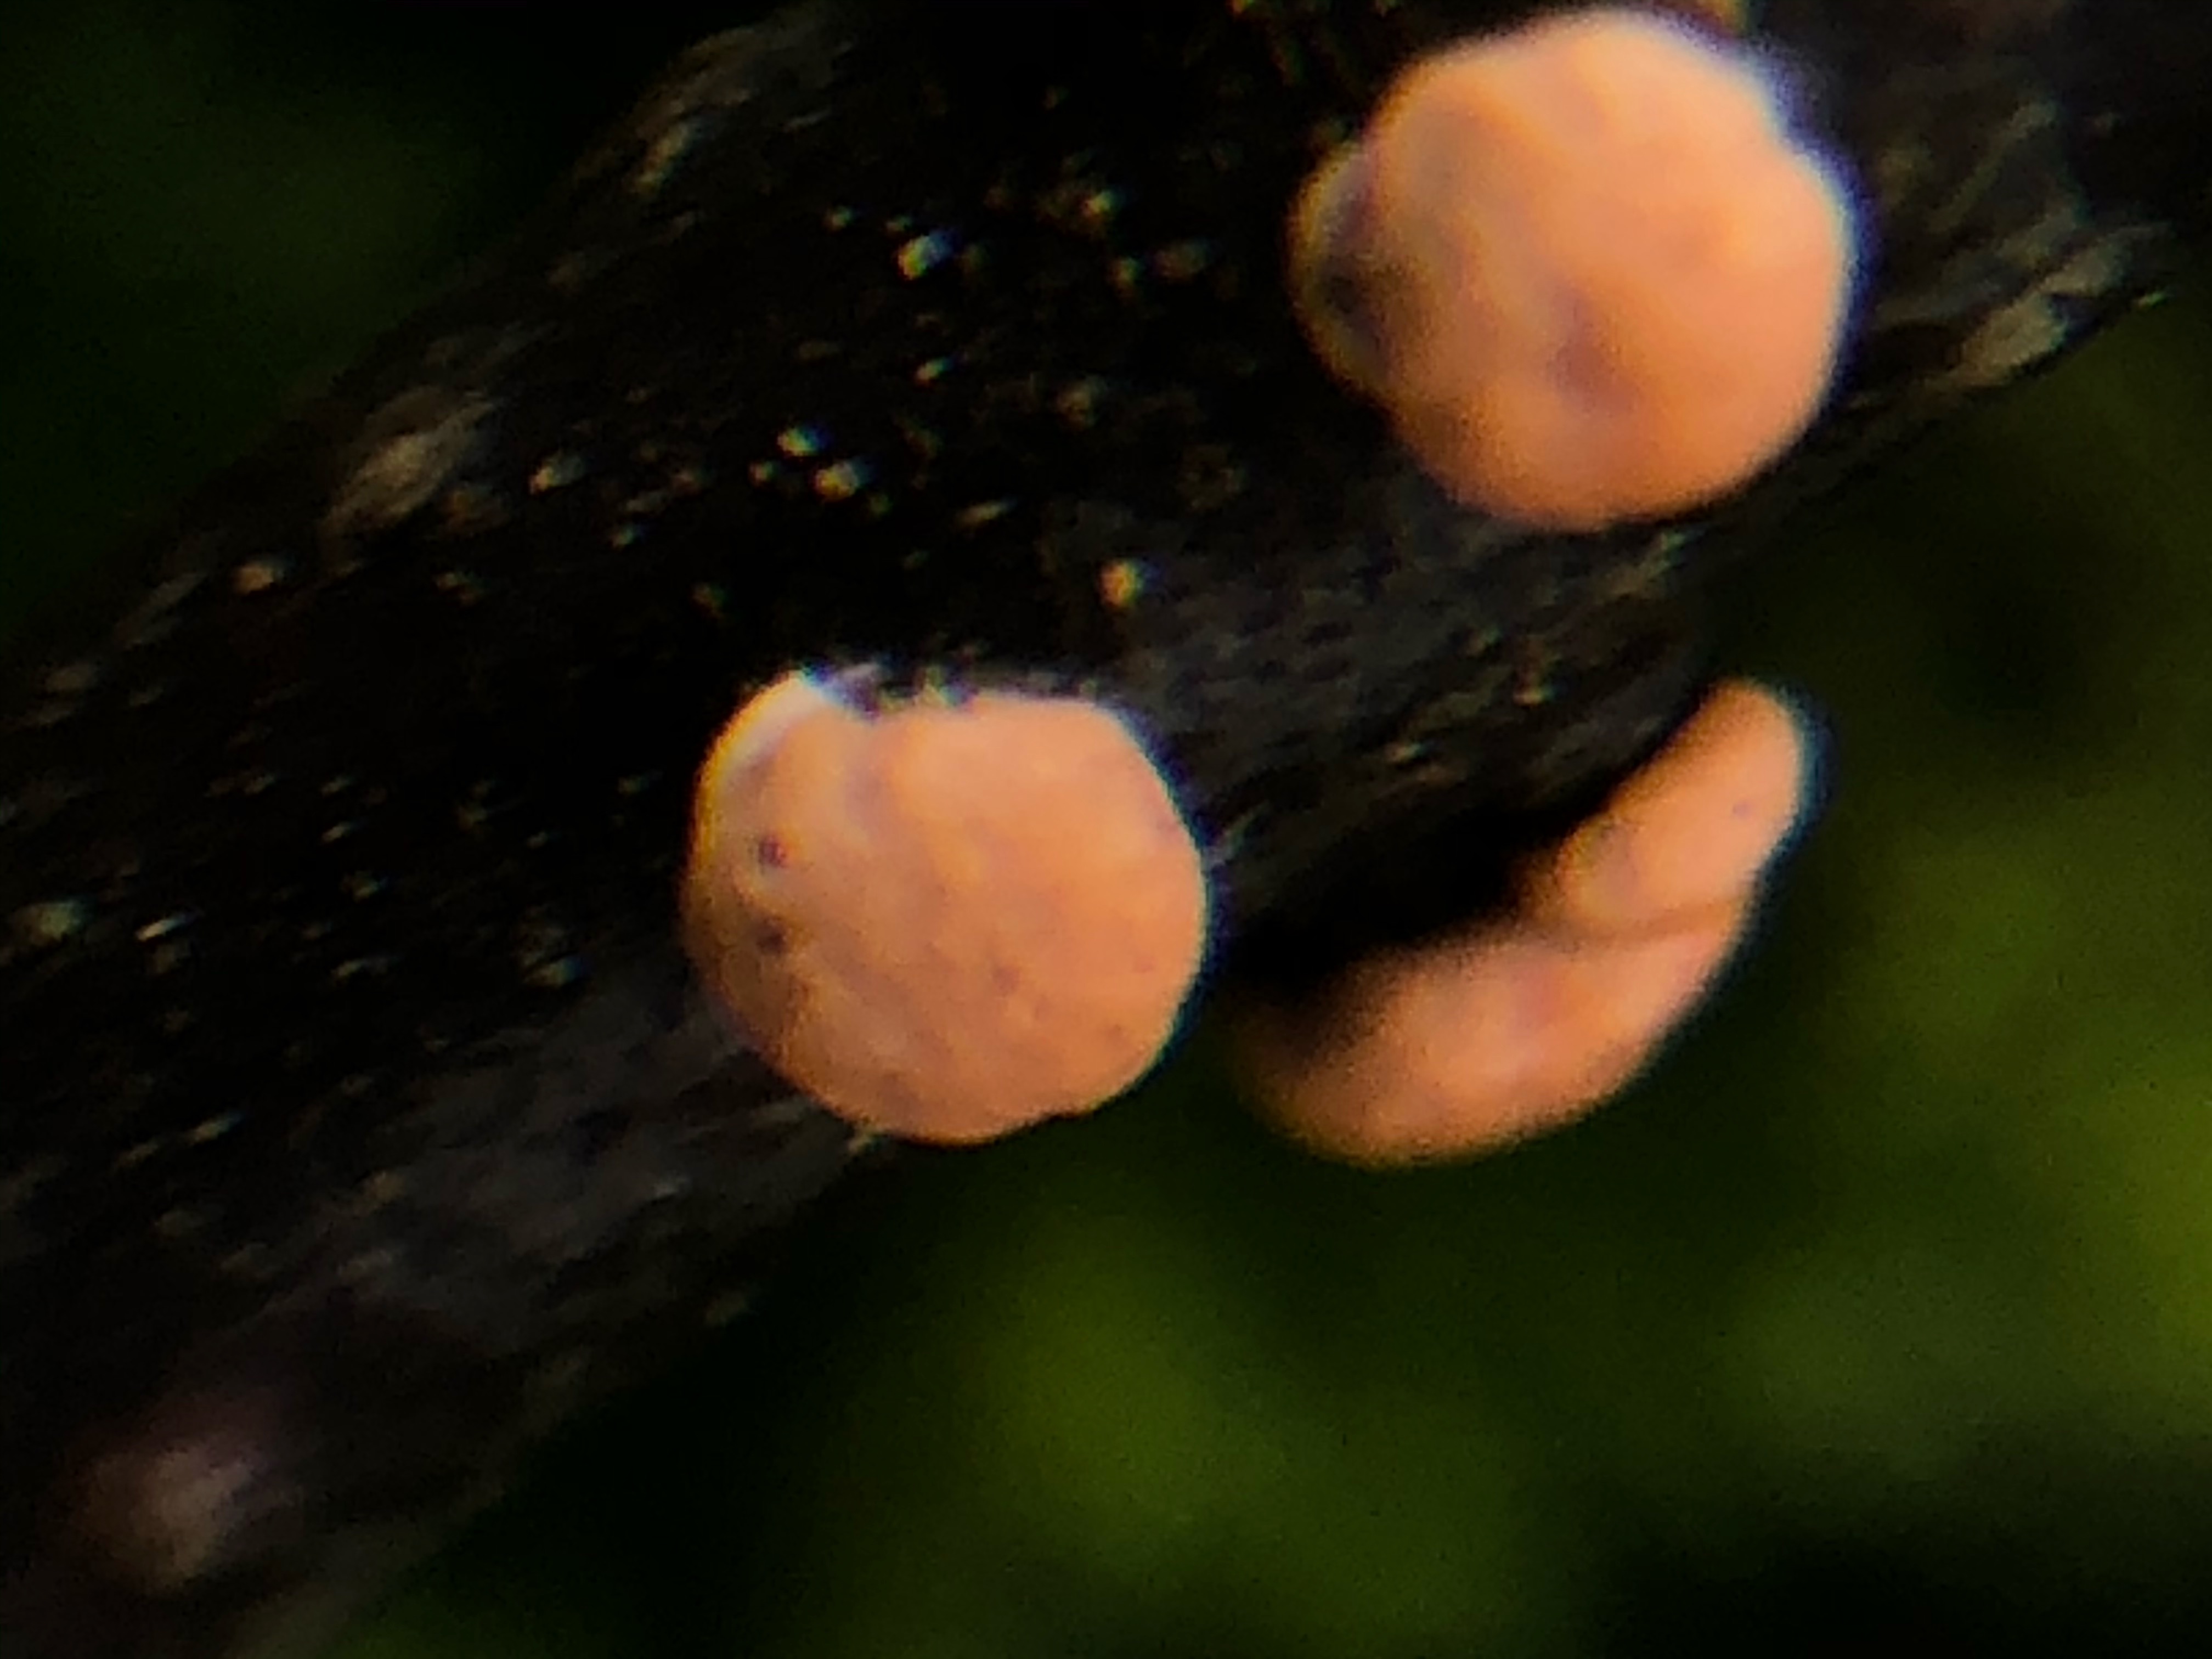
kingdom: Fungi
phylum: Ascomycota
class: Sordariomycetes
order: Hypocreales
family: Nectriaceae
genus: Nectria
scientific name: Nectria cinnabarina
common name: almindelig cinnobersvamp
